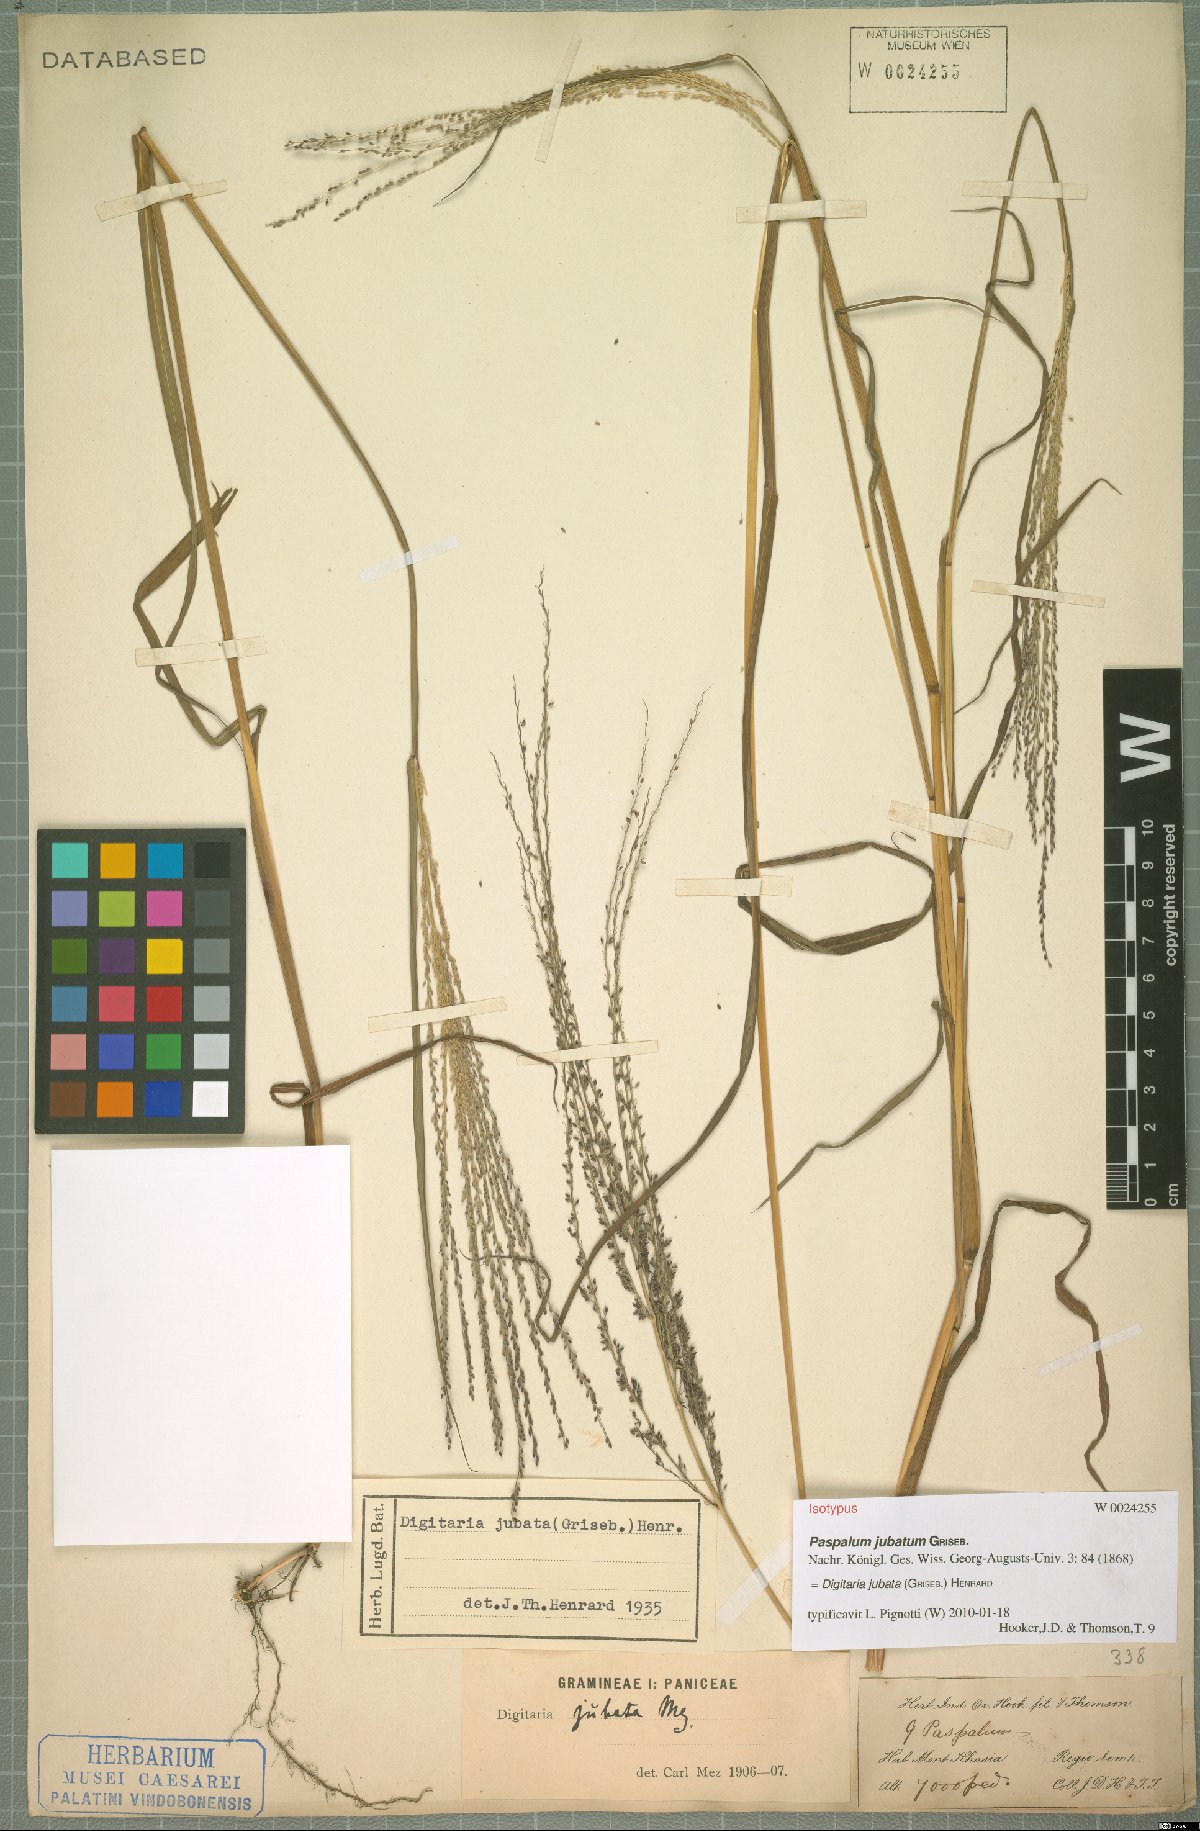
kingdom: Plantae
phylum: Tracheophyta
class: Liliopsida
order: Poales
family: Poaceae
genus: Digitaria
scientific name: Digitaria jubata
